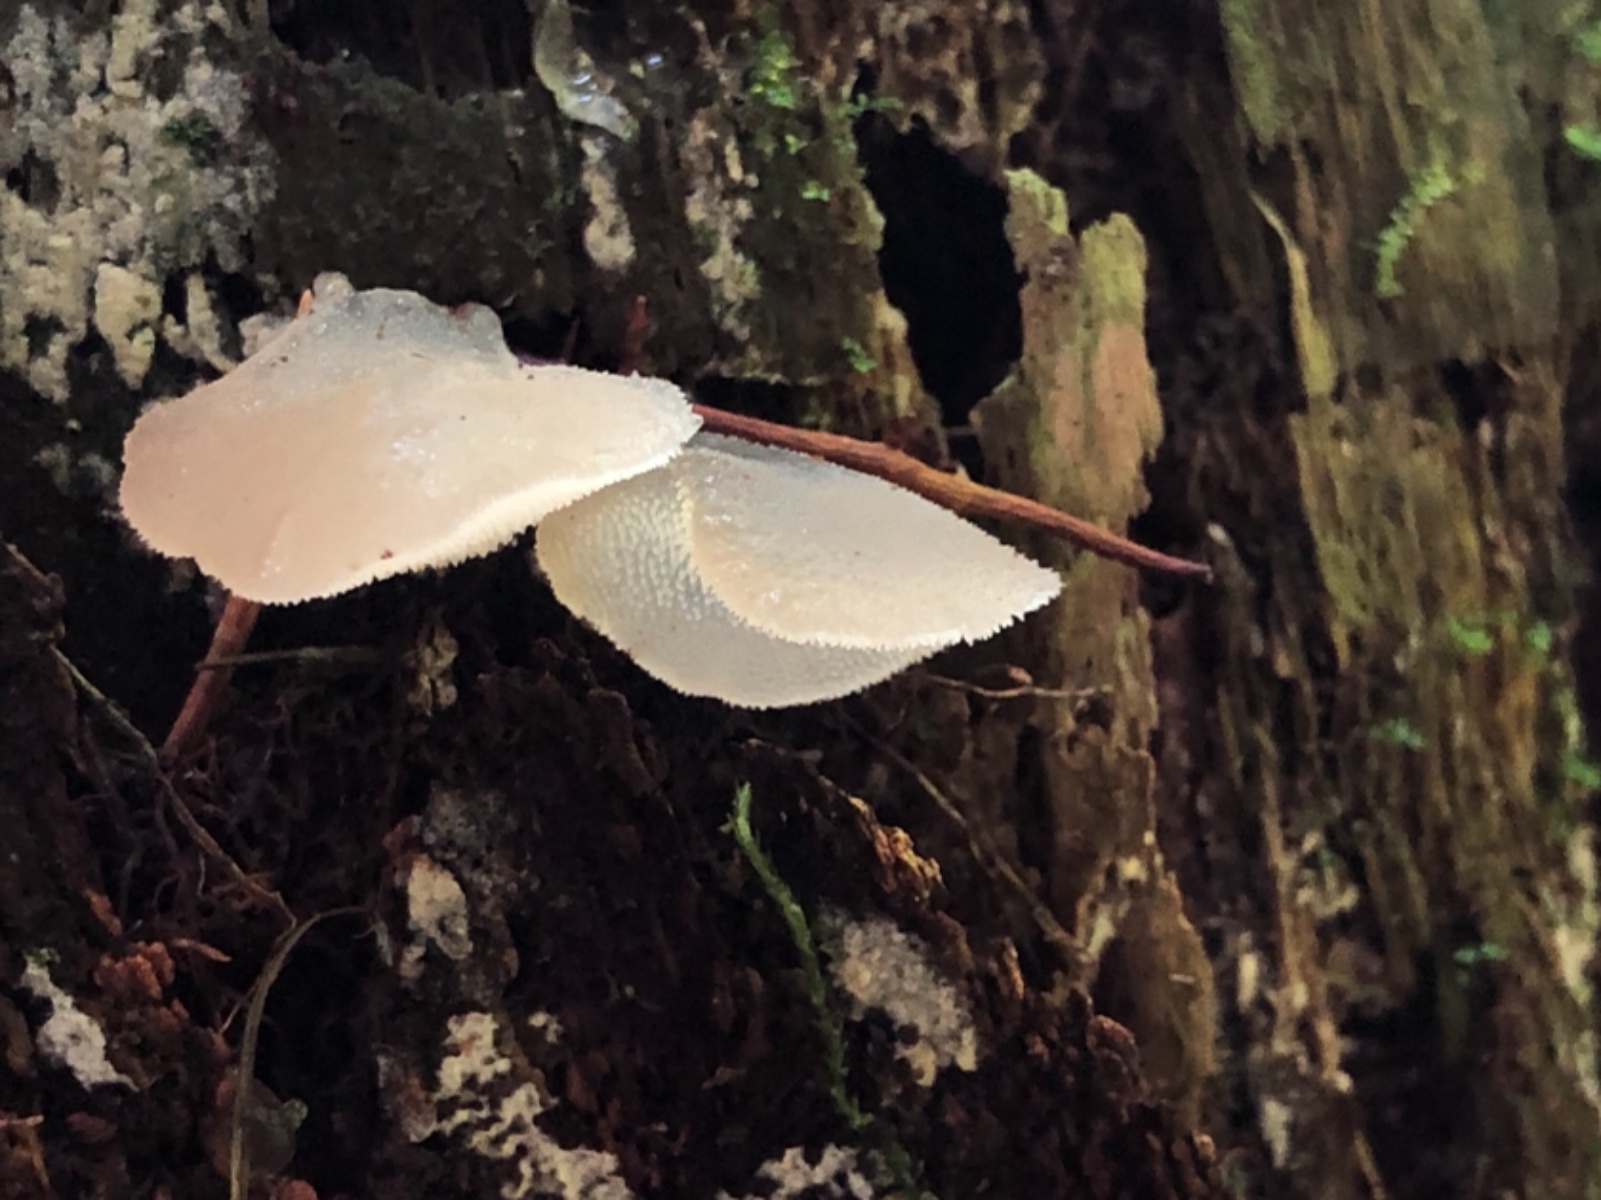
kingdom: Fungi
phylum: Basidiomycota
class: Agaricomycetes
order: Auriculariales
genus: Pseudohydnum
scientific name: Pseudohydnum gelatinosum
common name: bævretand
